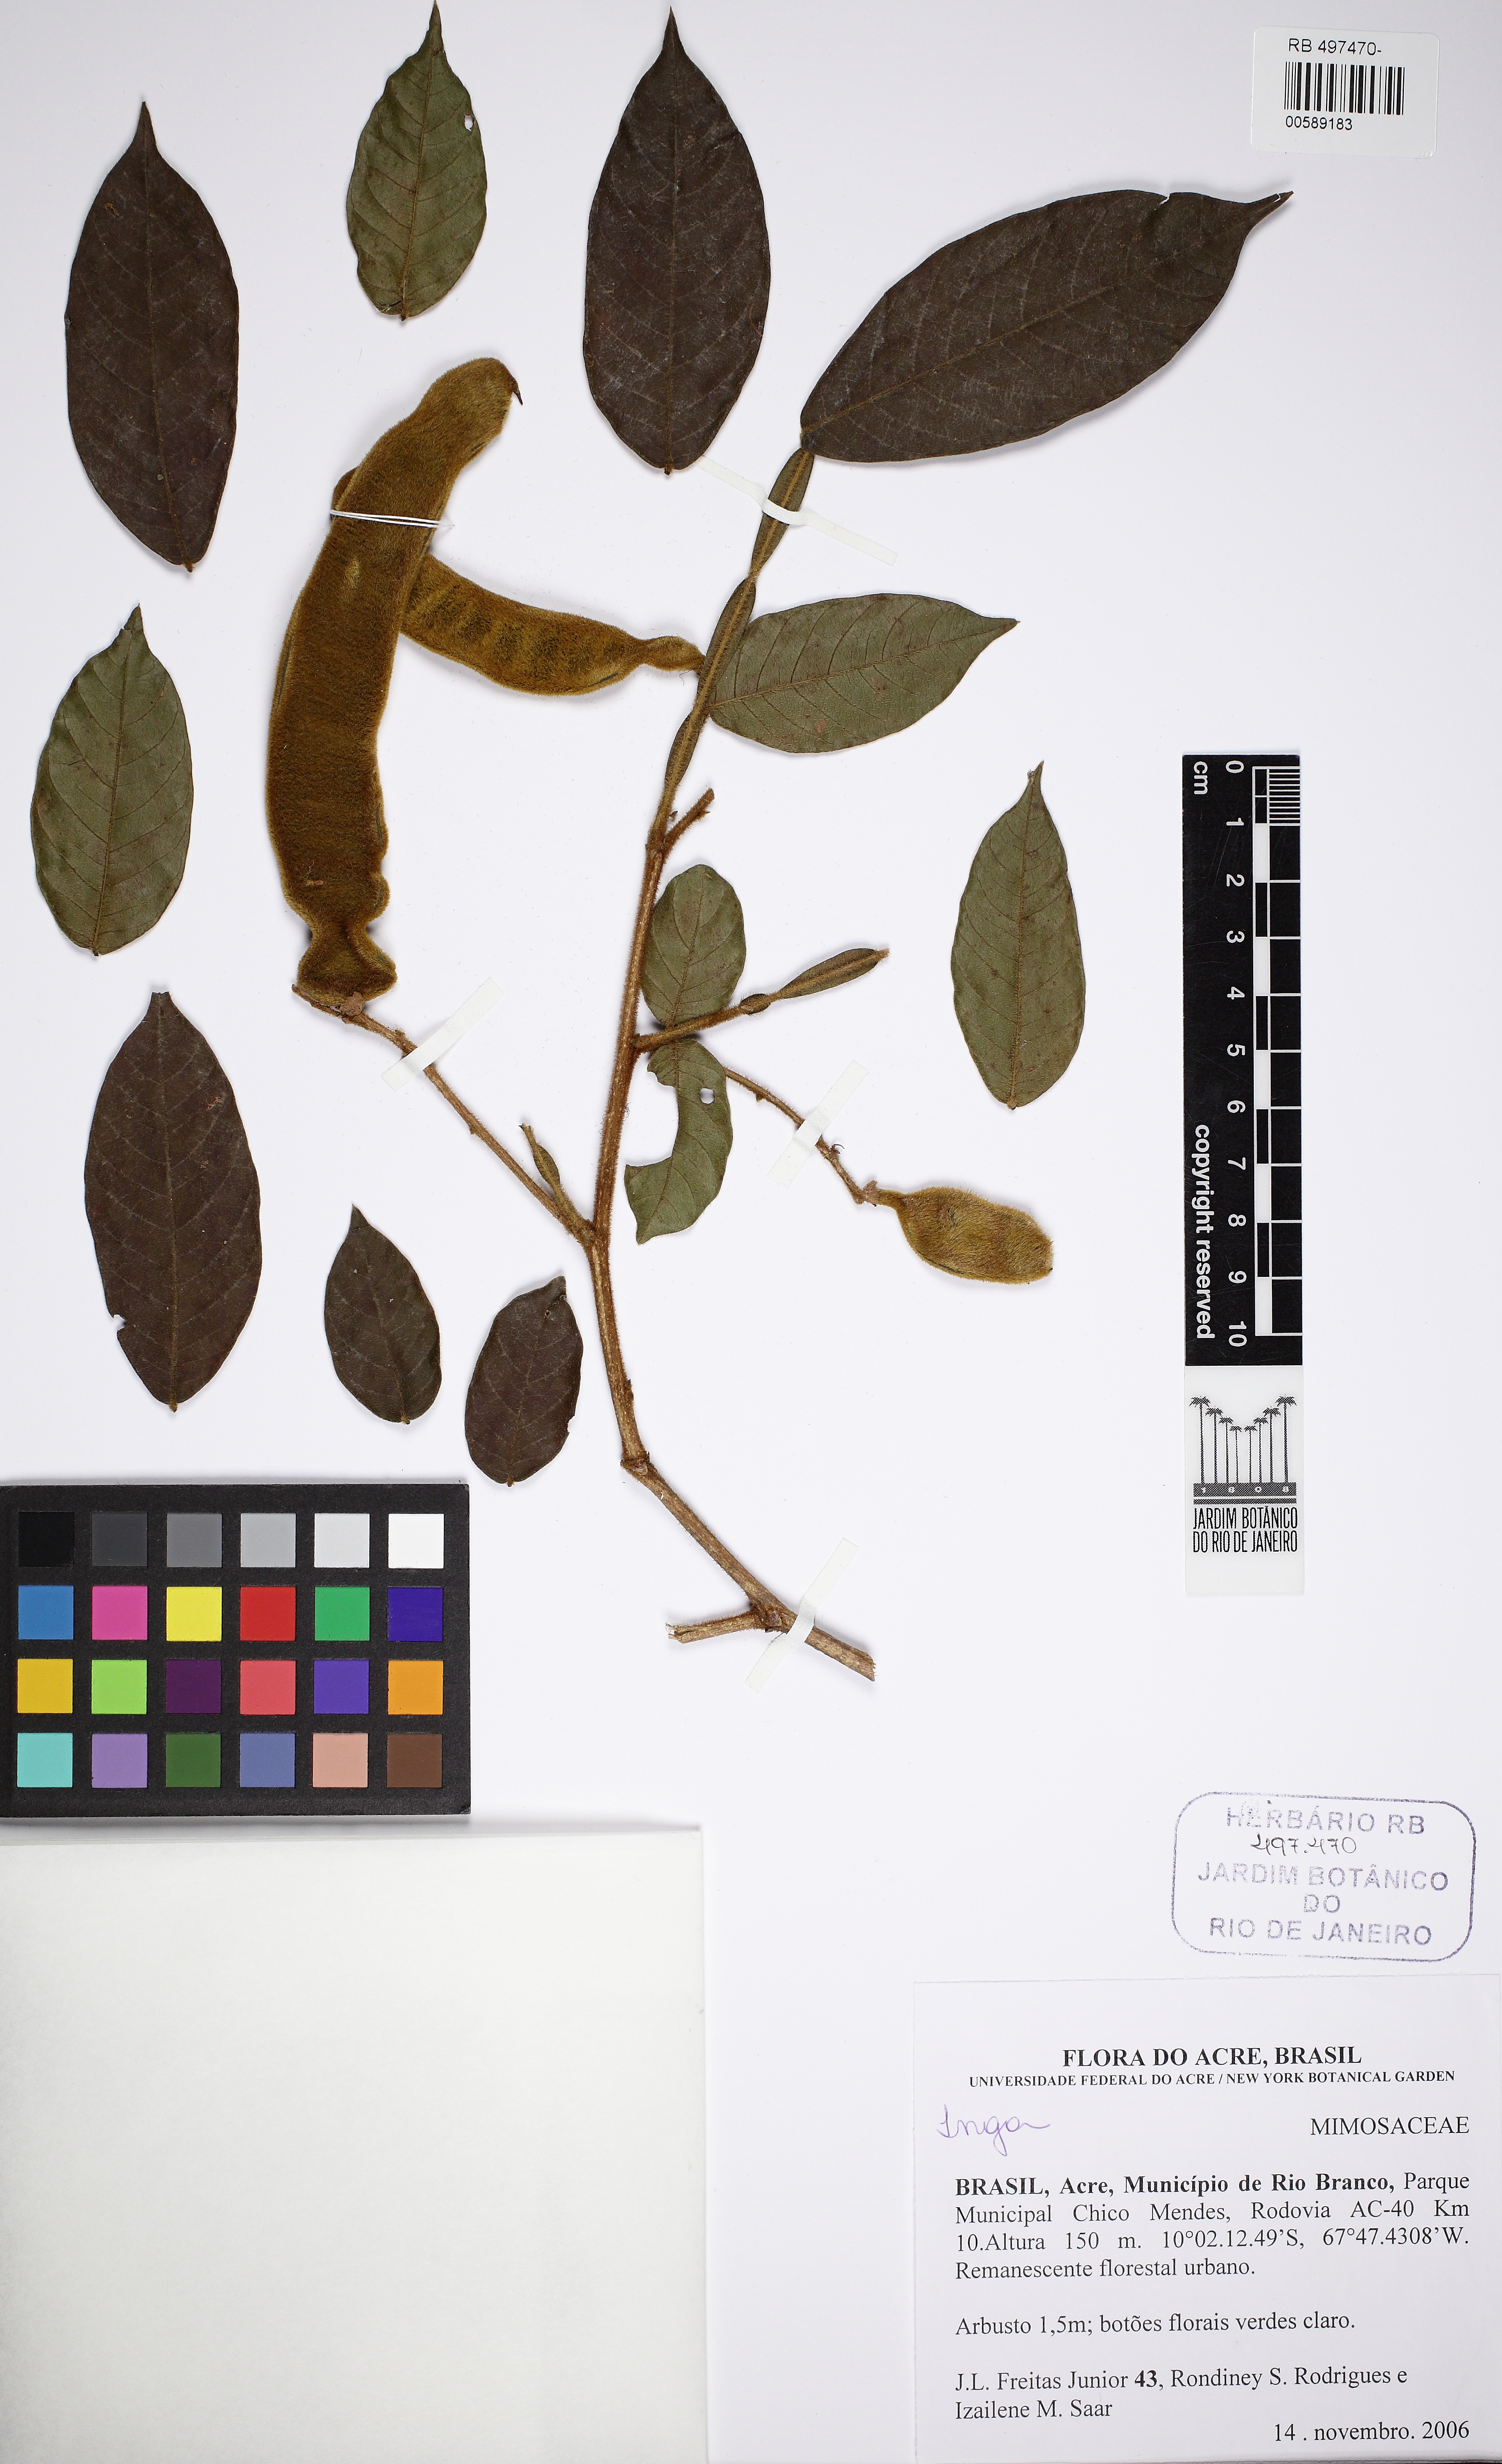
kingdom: Plantae
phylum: Tracheophyta
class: Magnoliopsida
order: Fabales
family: Fabaceae
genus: Inga
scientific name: Inga
